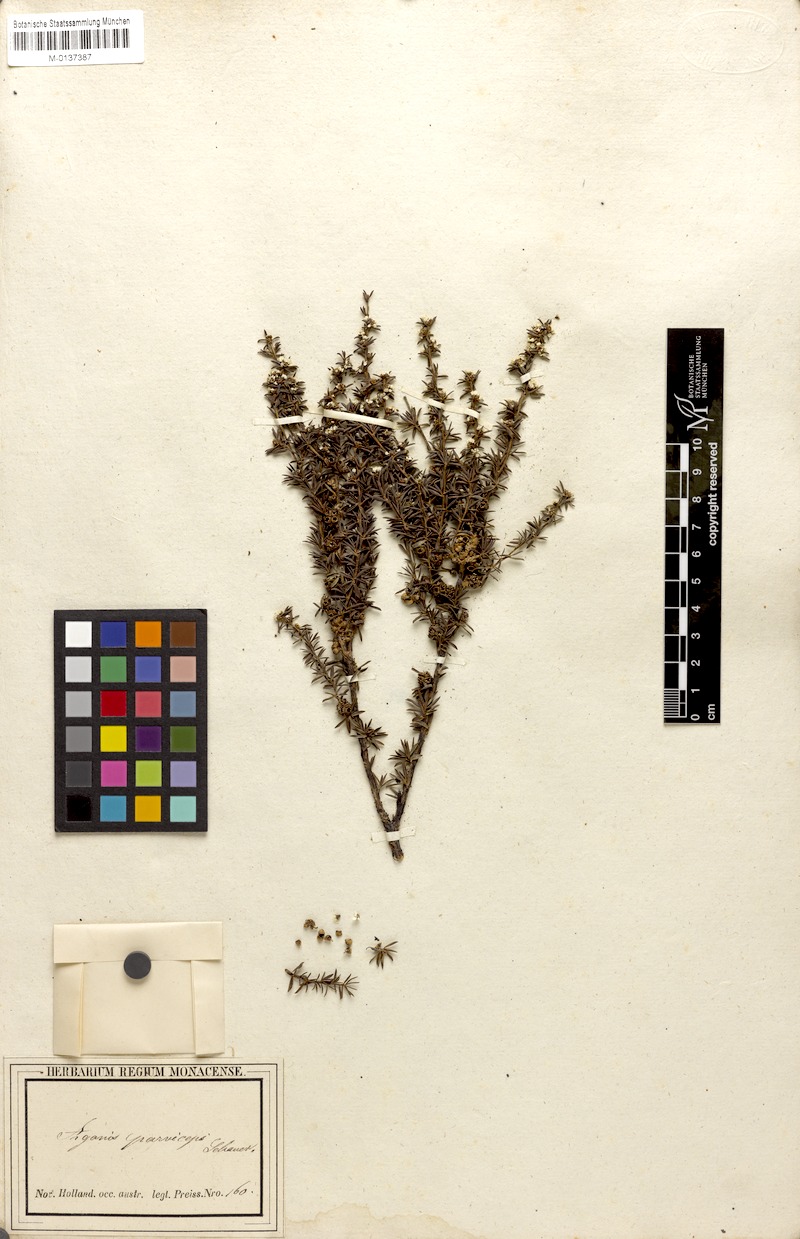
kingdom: Plantae
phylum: Tracheophyta
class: Magnoliopsida
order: Myrtales
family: Myrtaceae
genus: Taxandria
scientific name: Taxandria parviceps
